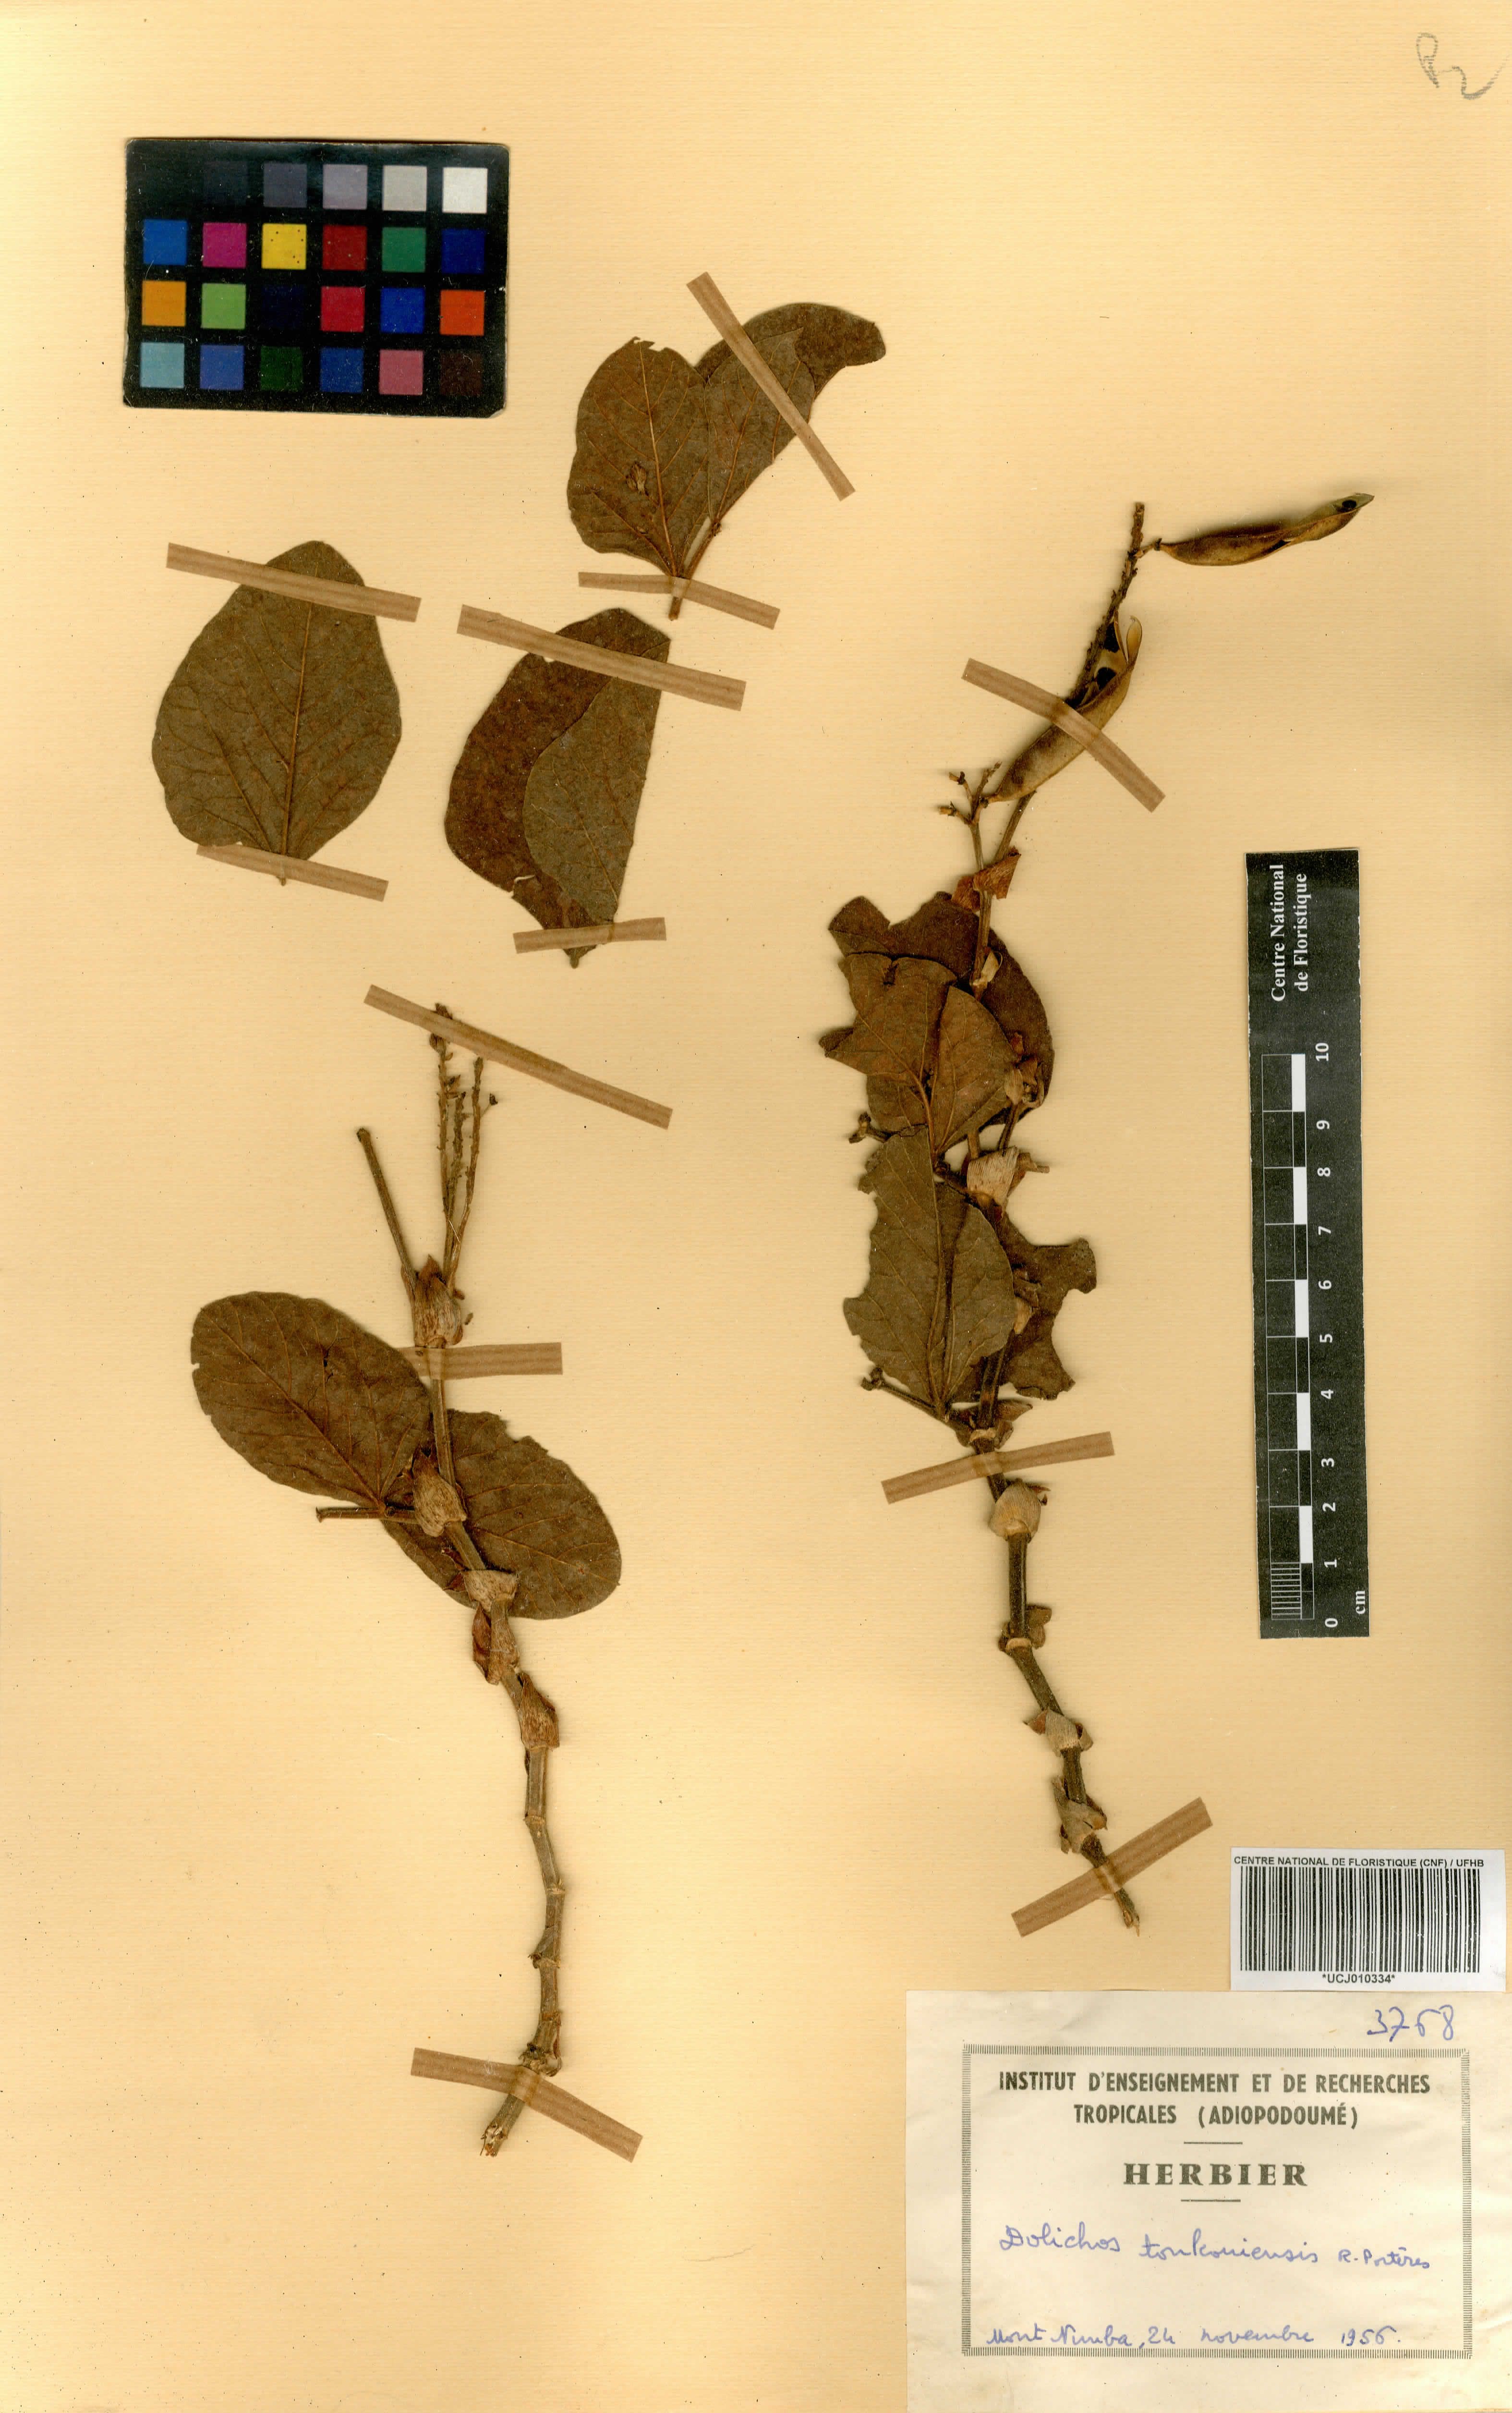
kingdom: Plantae
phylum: Tracheophyta
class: Magnoliopsida
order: Fabales
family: Fabaceae
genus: Dolichos
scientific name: Dolichos tonkouiensis
